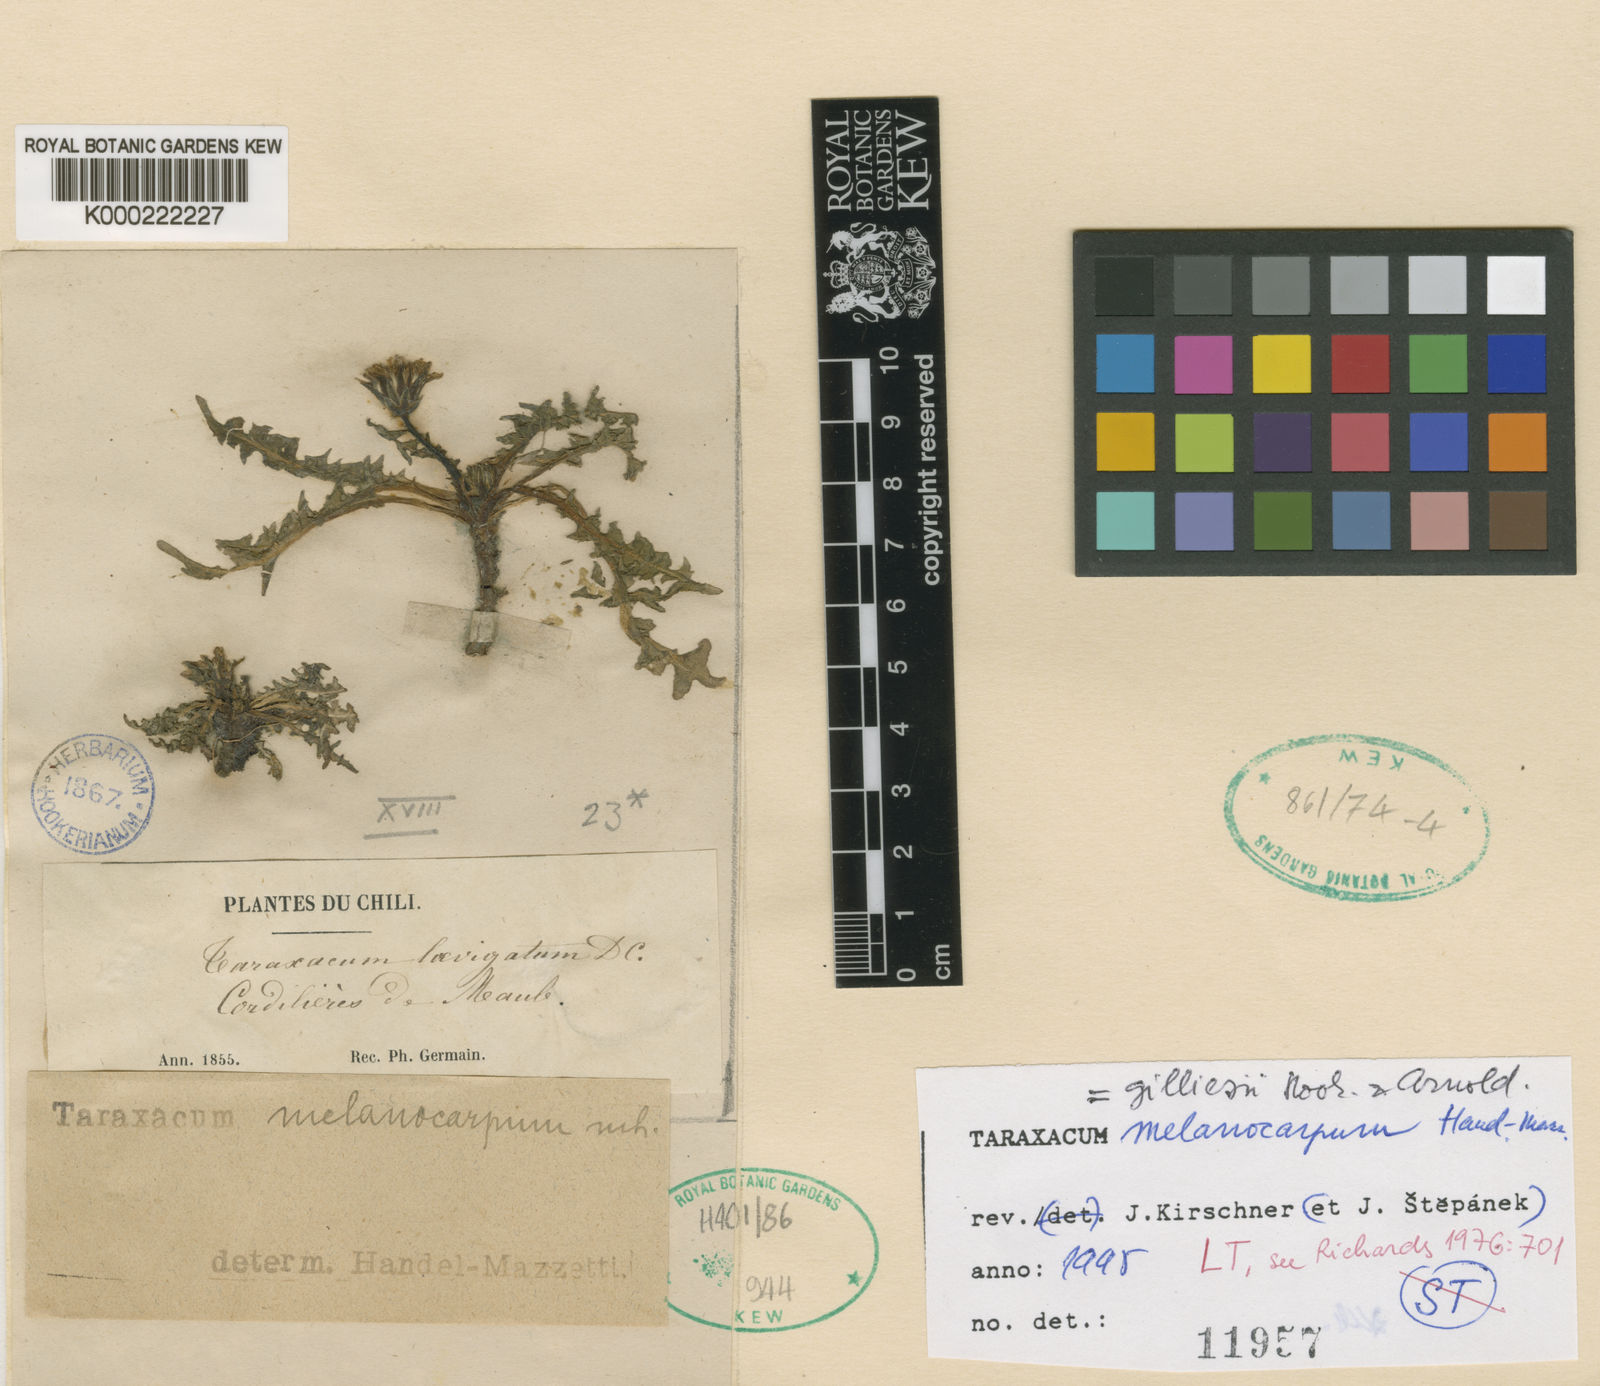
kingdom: Plantae
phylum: Tracheophyta
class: Magnoliopsida
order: Asterales
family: Asteraceae
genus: Taraxacum
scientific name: Taraxacum melanocarpum
